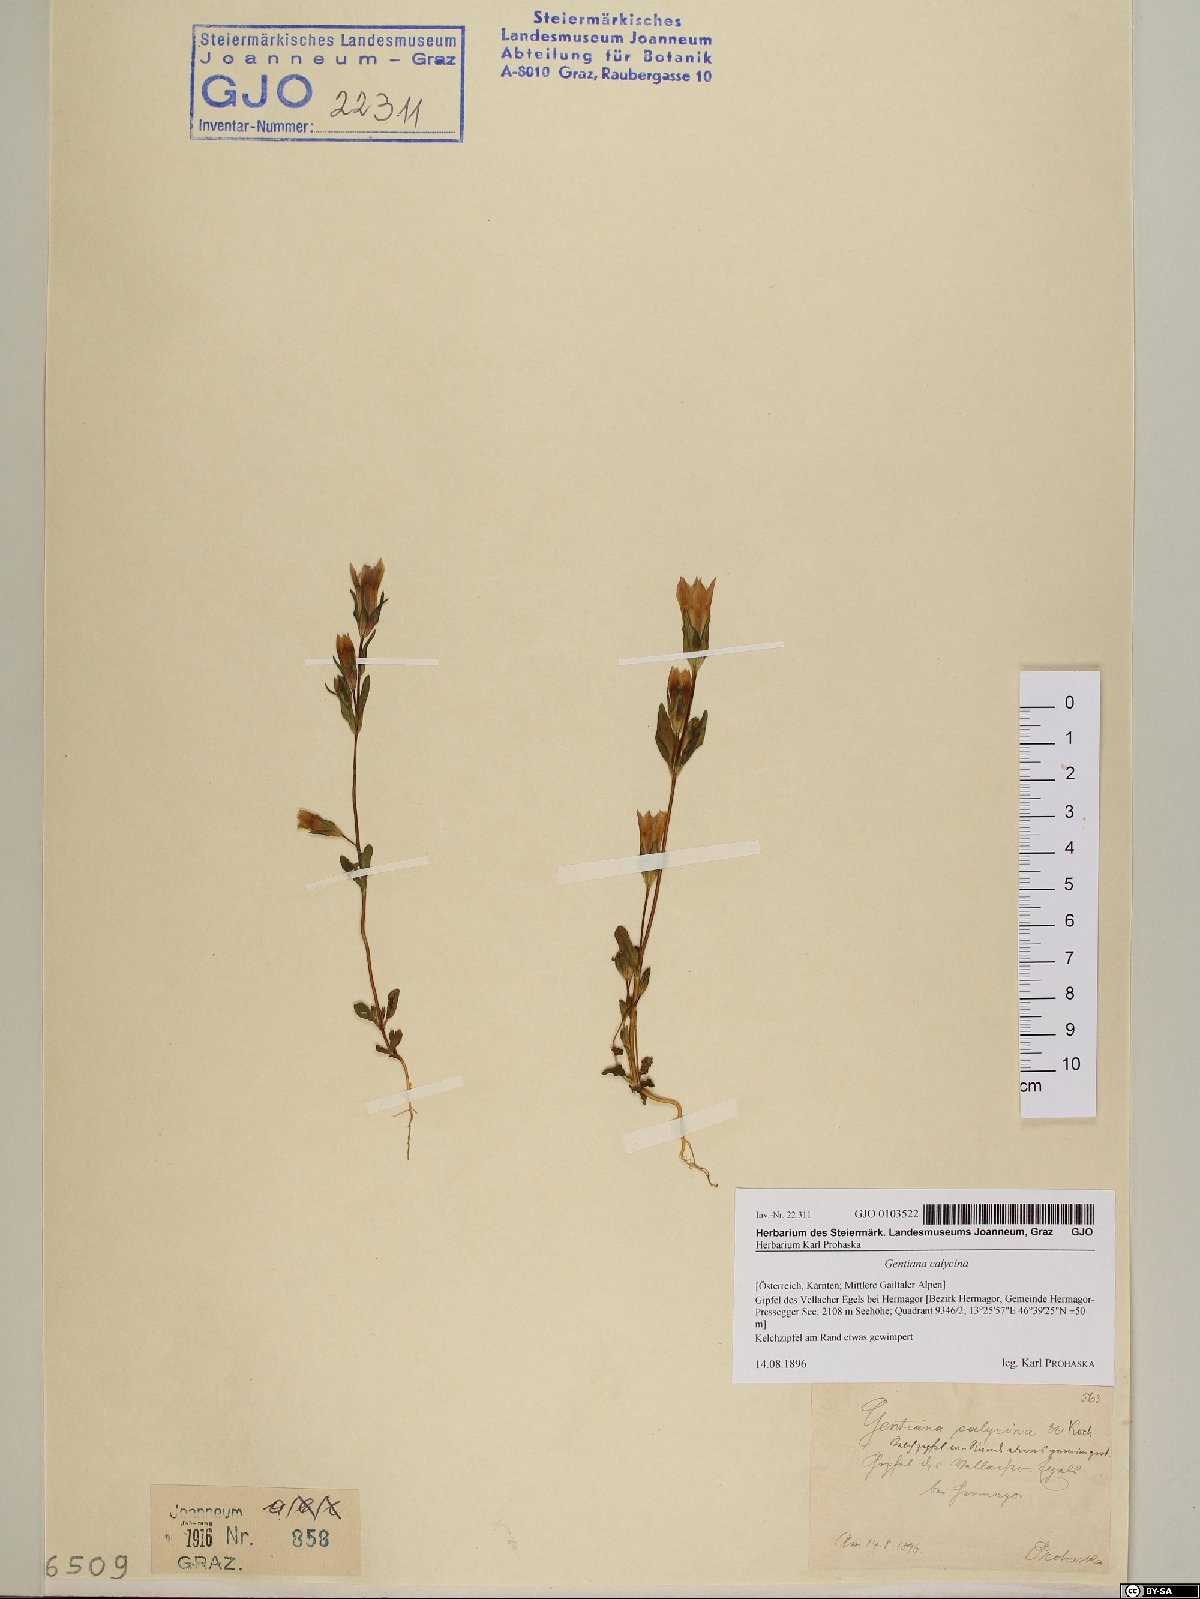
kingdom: Plantae
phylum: Tracheophyta
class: Magnoliopsida
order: Gentianales
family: Gentianaceae
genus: Gentianella
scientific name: Gentianella germanica
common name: Chiltern-gentian
